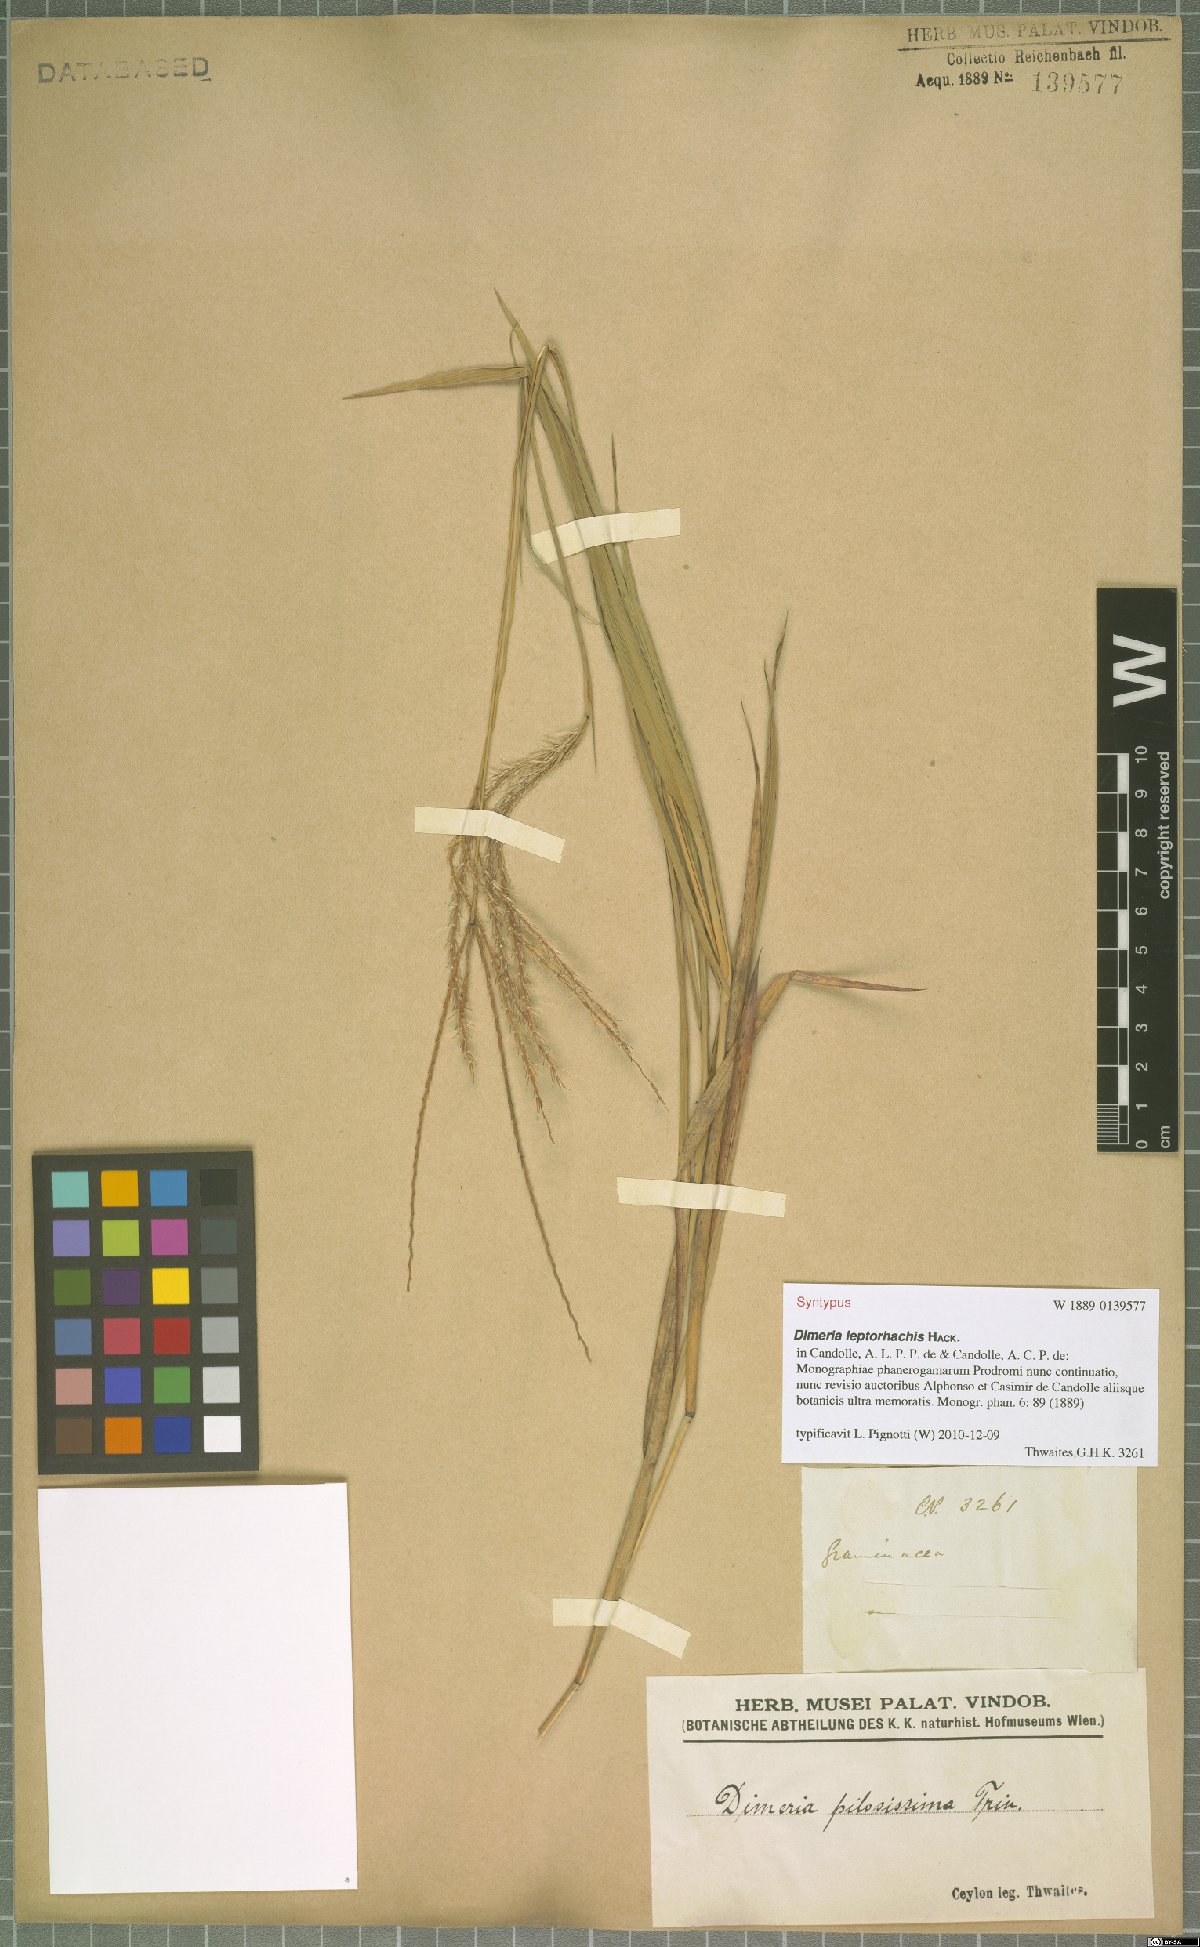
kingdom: Plantae
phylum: Tracheophyta
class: Liliopsida
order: Poales
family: Poaceae
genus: Dimeria
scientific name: Dimeria gracilis
